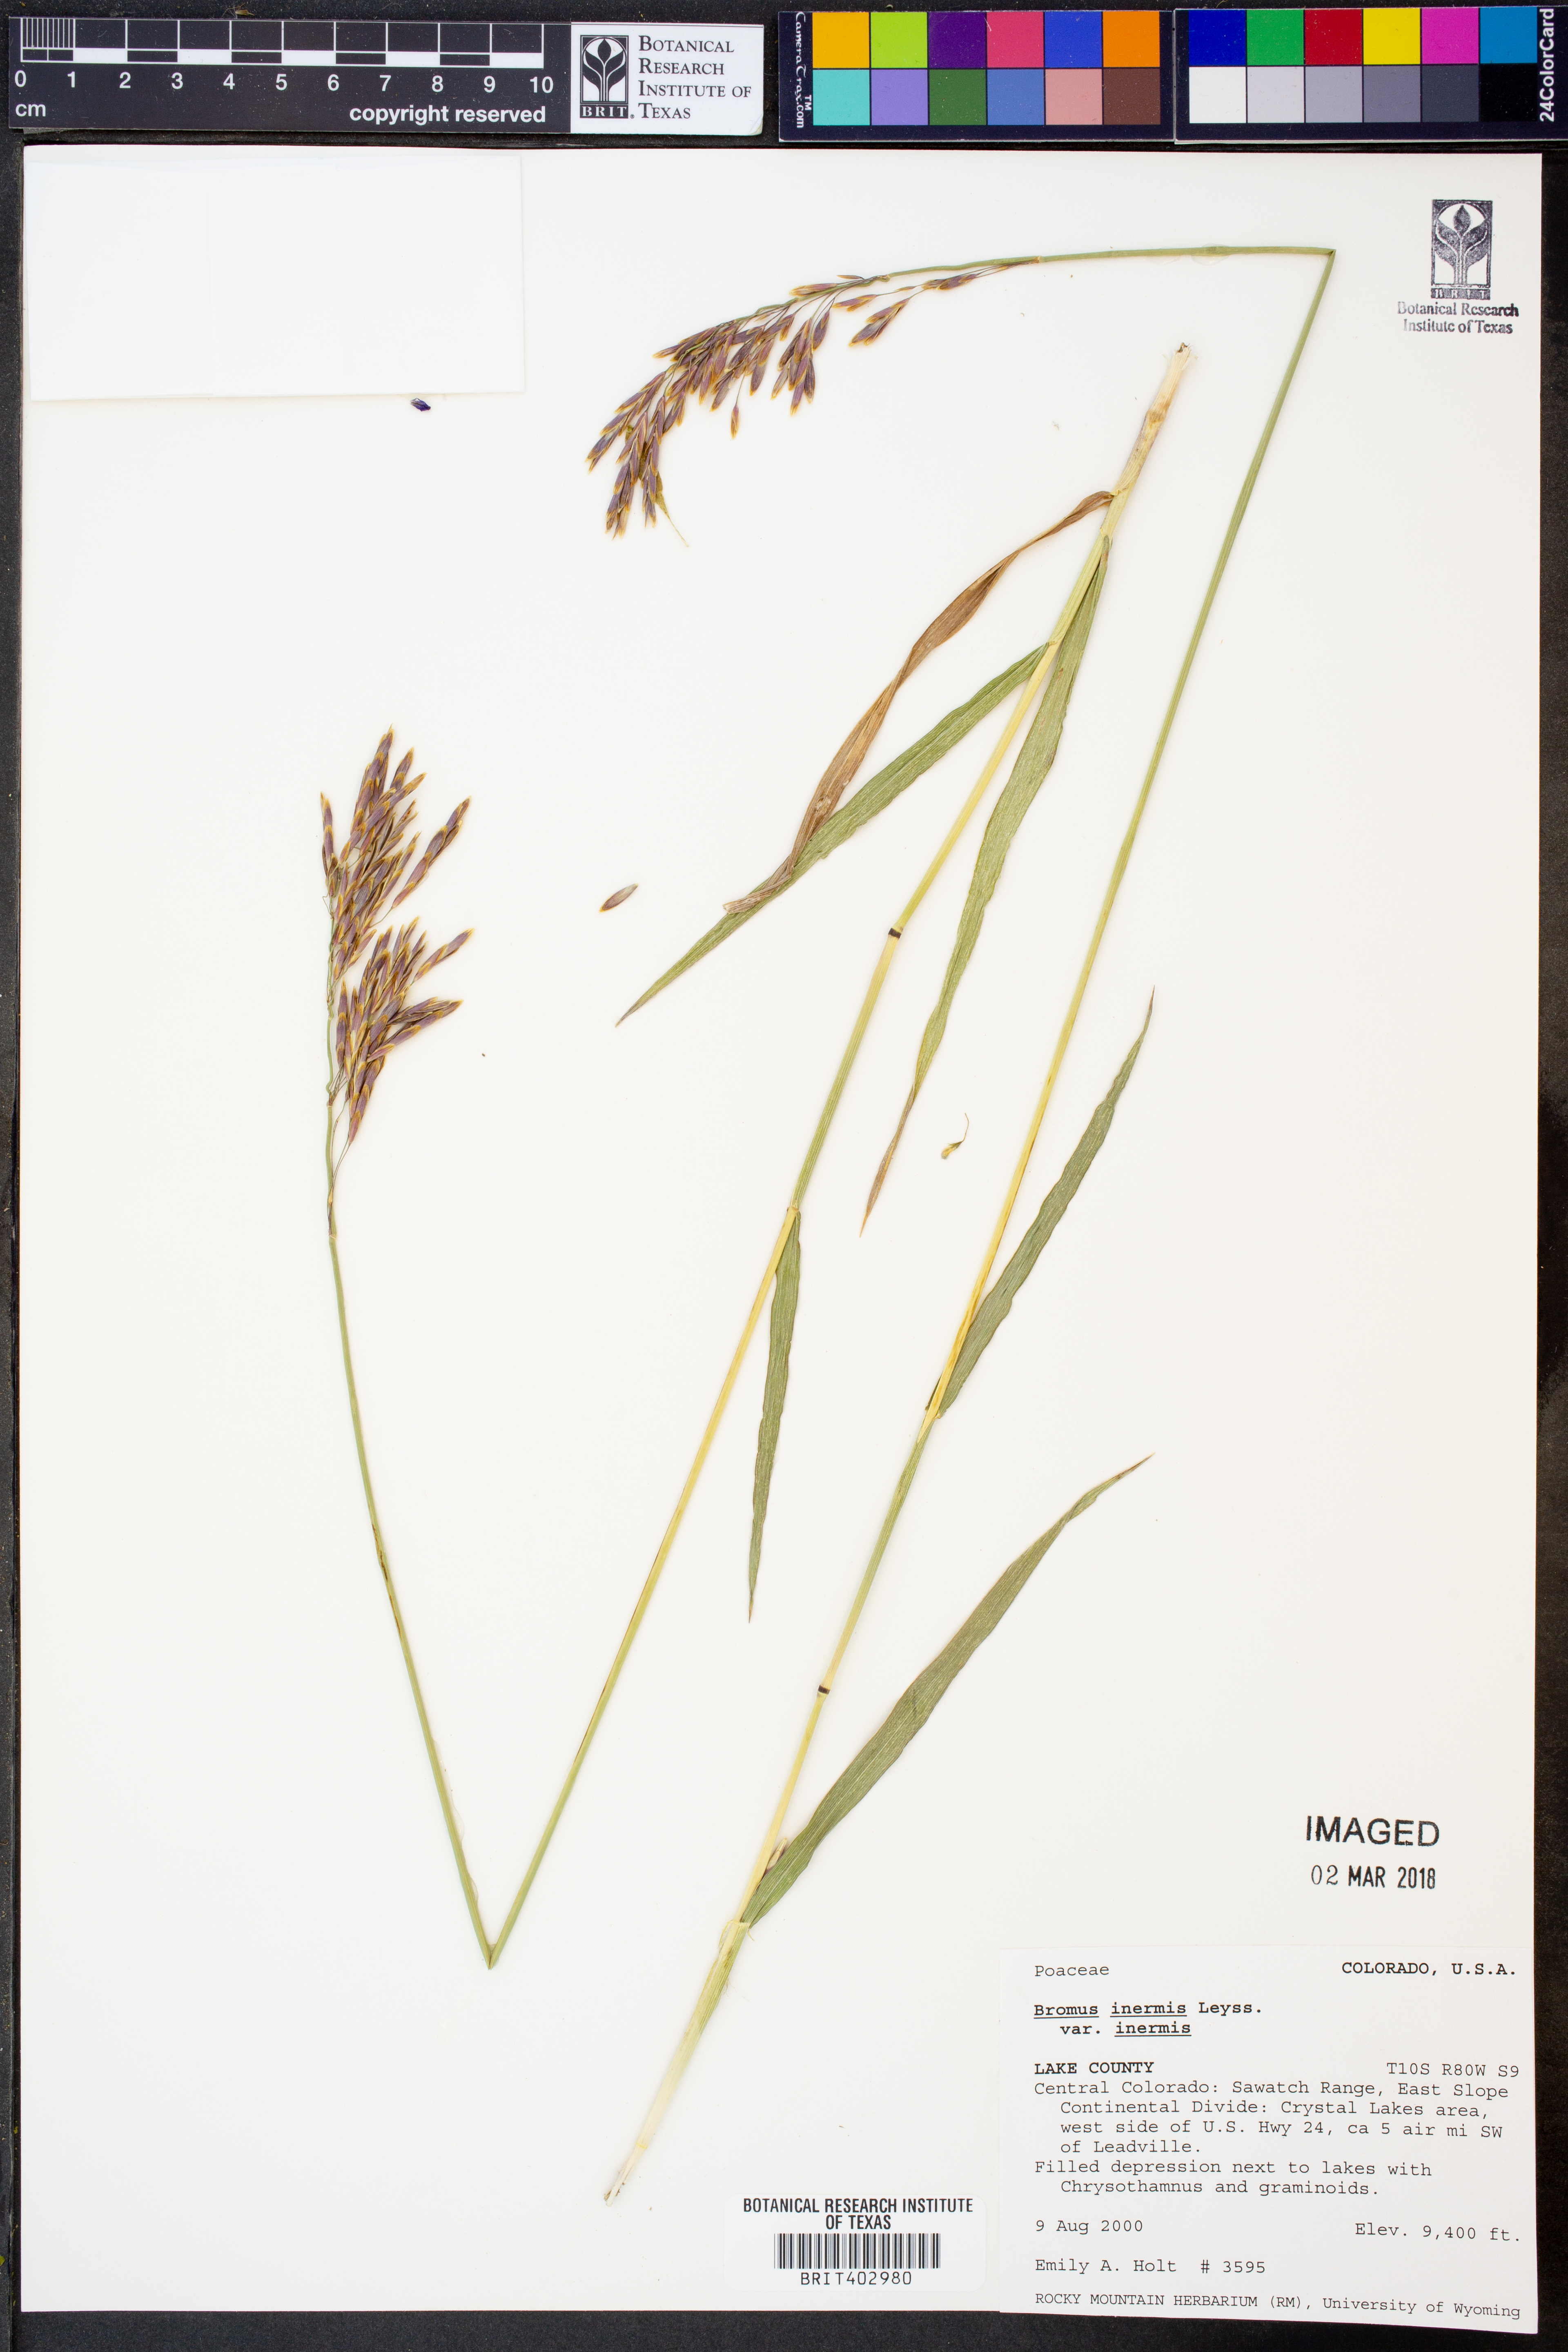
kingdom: Plantae
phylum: Tracheophyta
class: Liliopsida
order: Poales
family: Poaceae
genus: Bromus
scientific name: Bromus inermis
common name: Smooth brome
